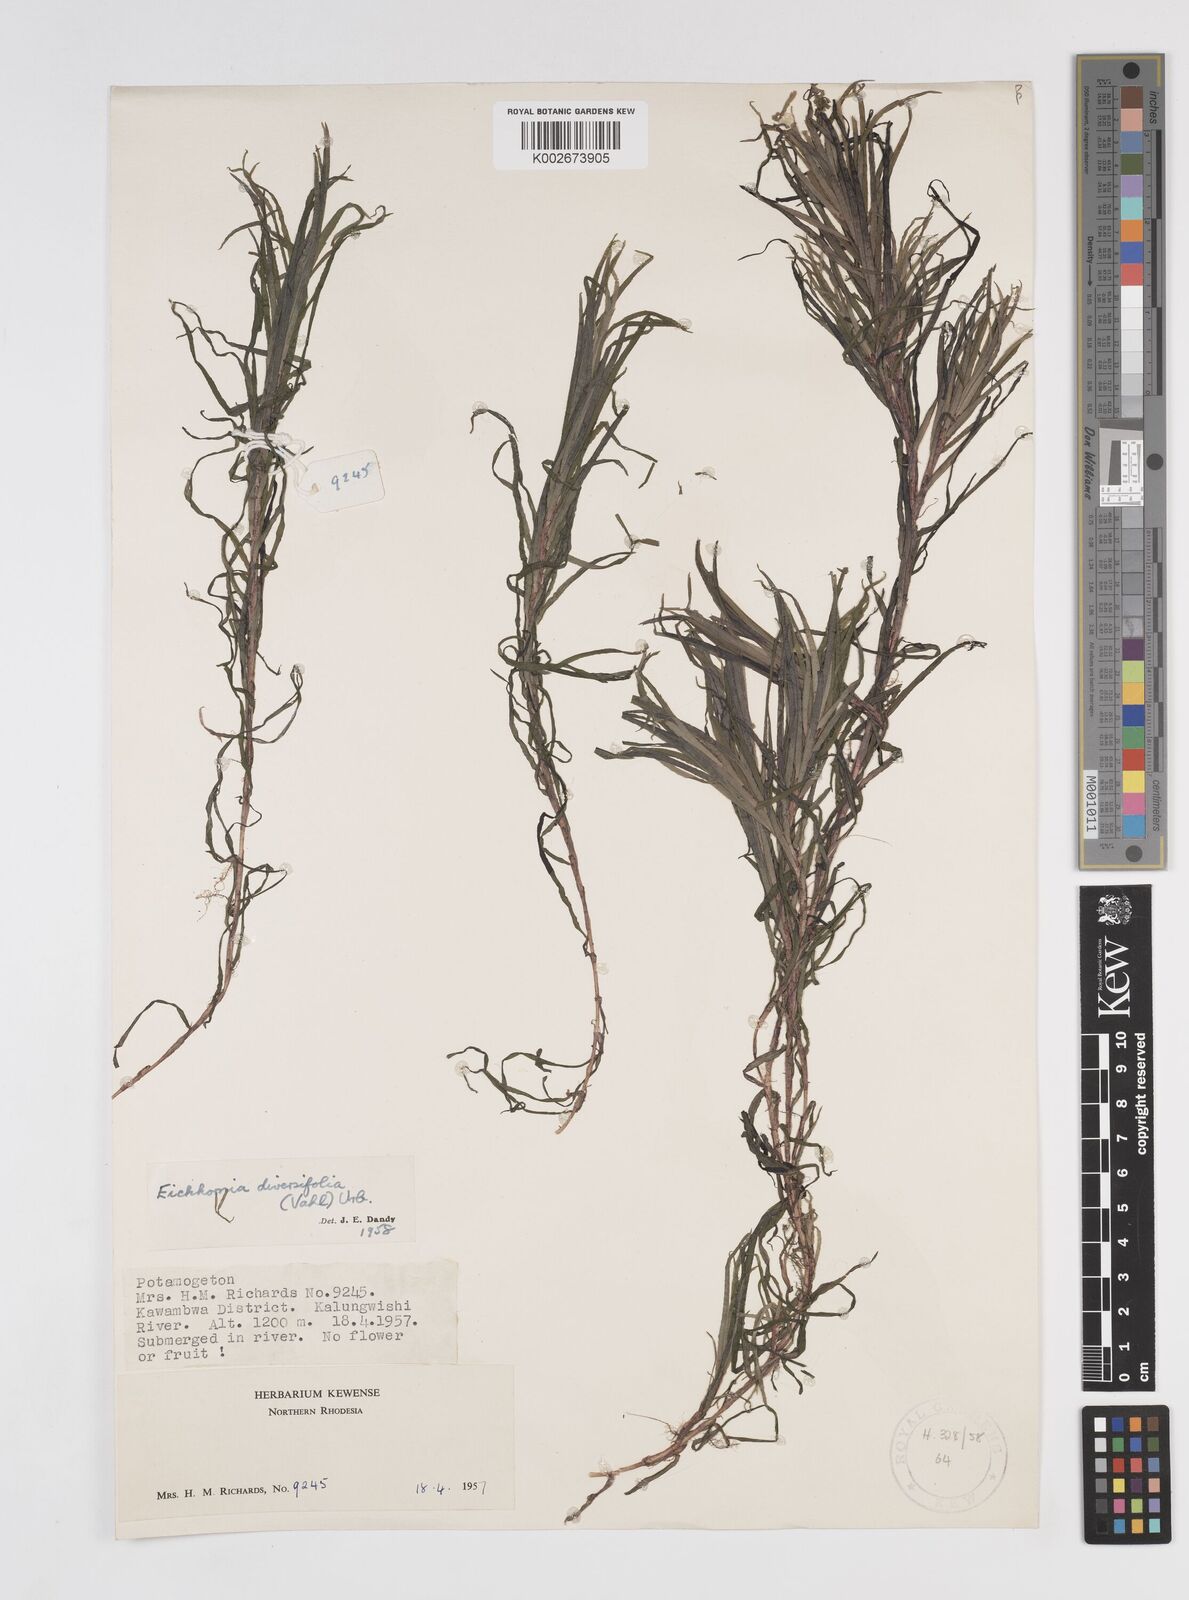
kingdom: Plantae
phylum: Tracheophyta
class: Liliopsida
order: Commelinales
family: Pontederiaceae
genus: Pontederia
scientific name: Pontederia diversifolia
